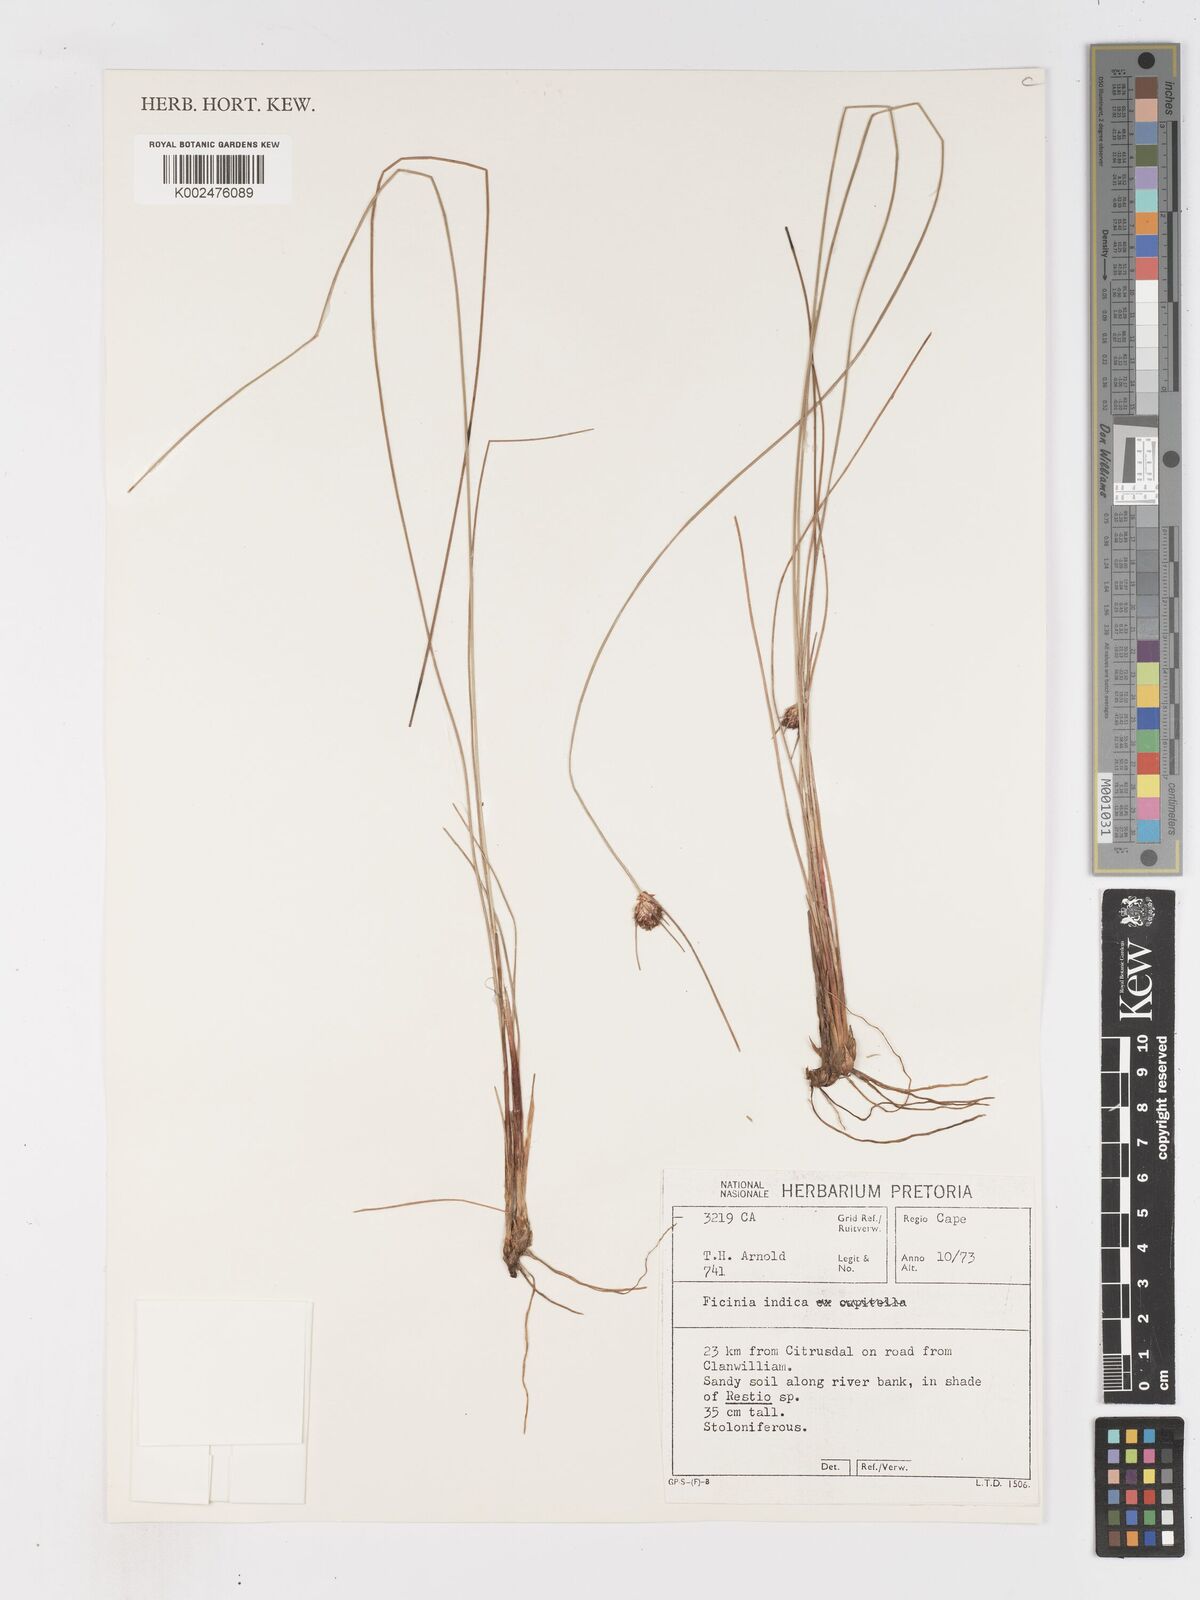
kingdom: Plantae
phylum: Tracheophyta
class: Liliopsida
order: Poales
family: Cyperaceae
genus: Ficinia
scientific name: Ficinia indica
